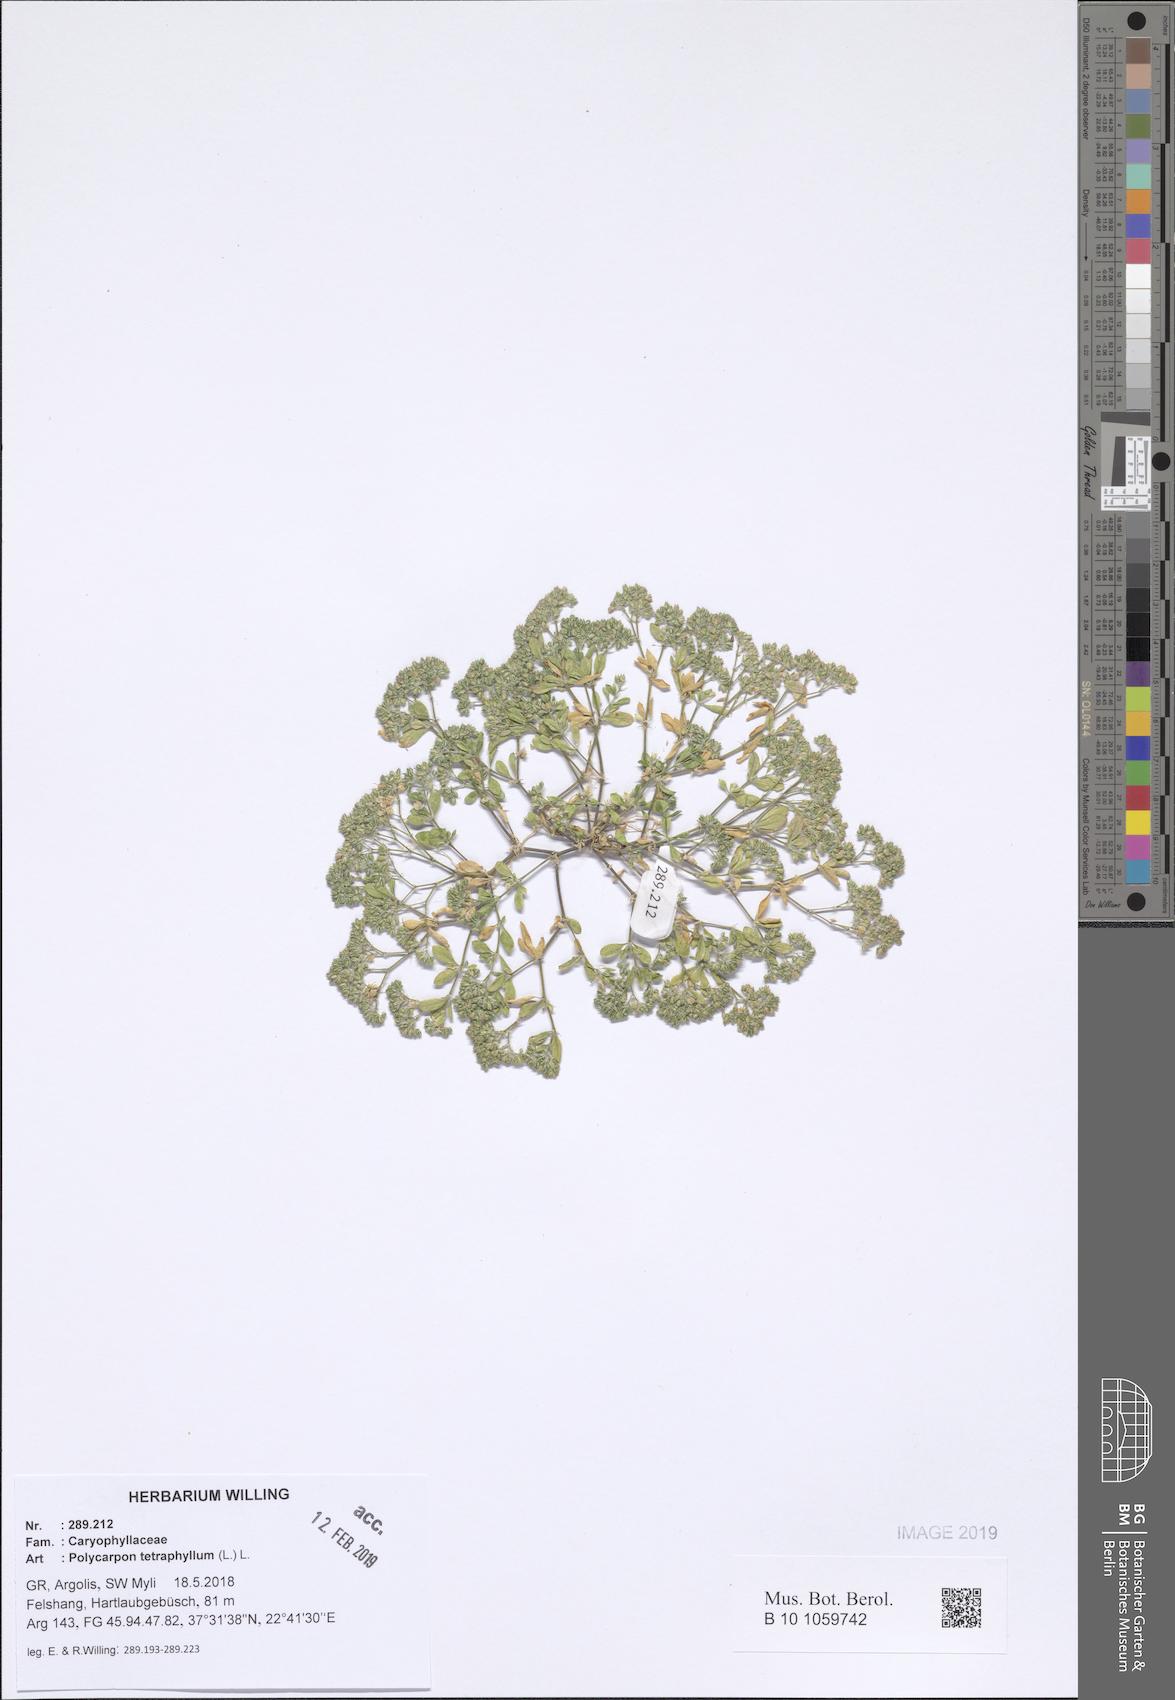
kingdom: Plantae
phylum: Tracheophyta
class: Magnoliopsida
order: Caryophyllales
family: Caryophyllaceae
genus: Polycarpon
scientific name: Polycarpon tetraphyllum
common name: Four-leaved all-seed
